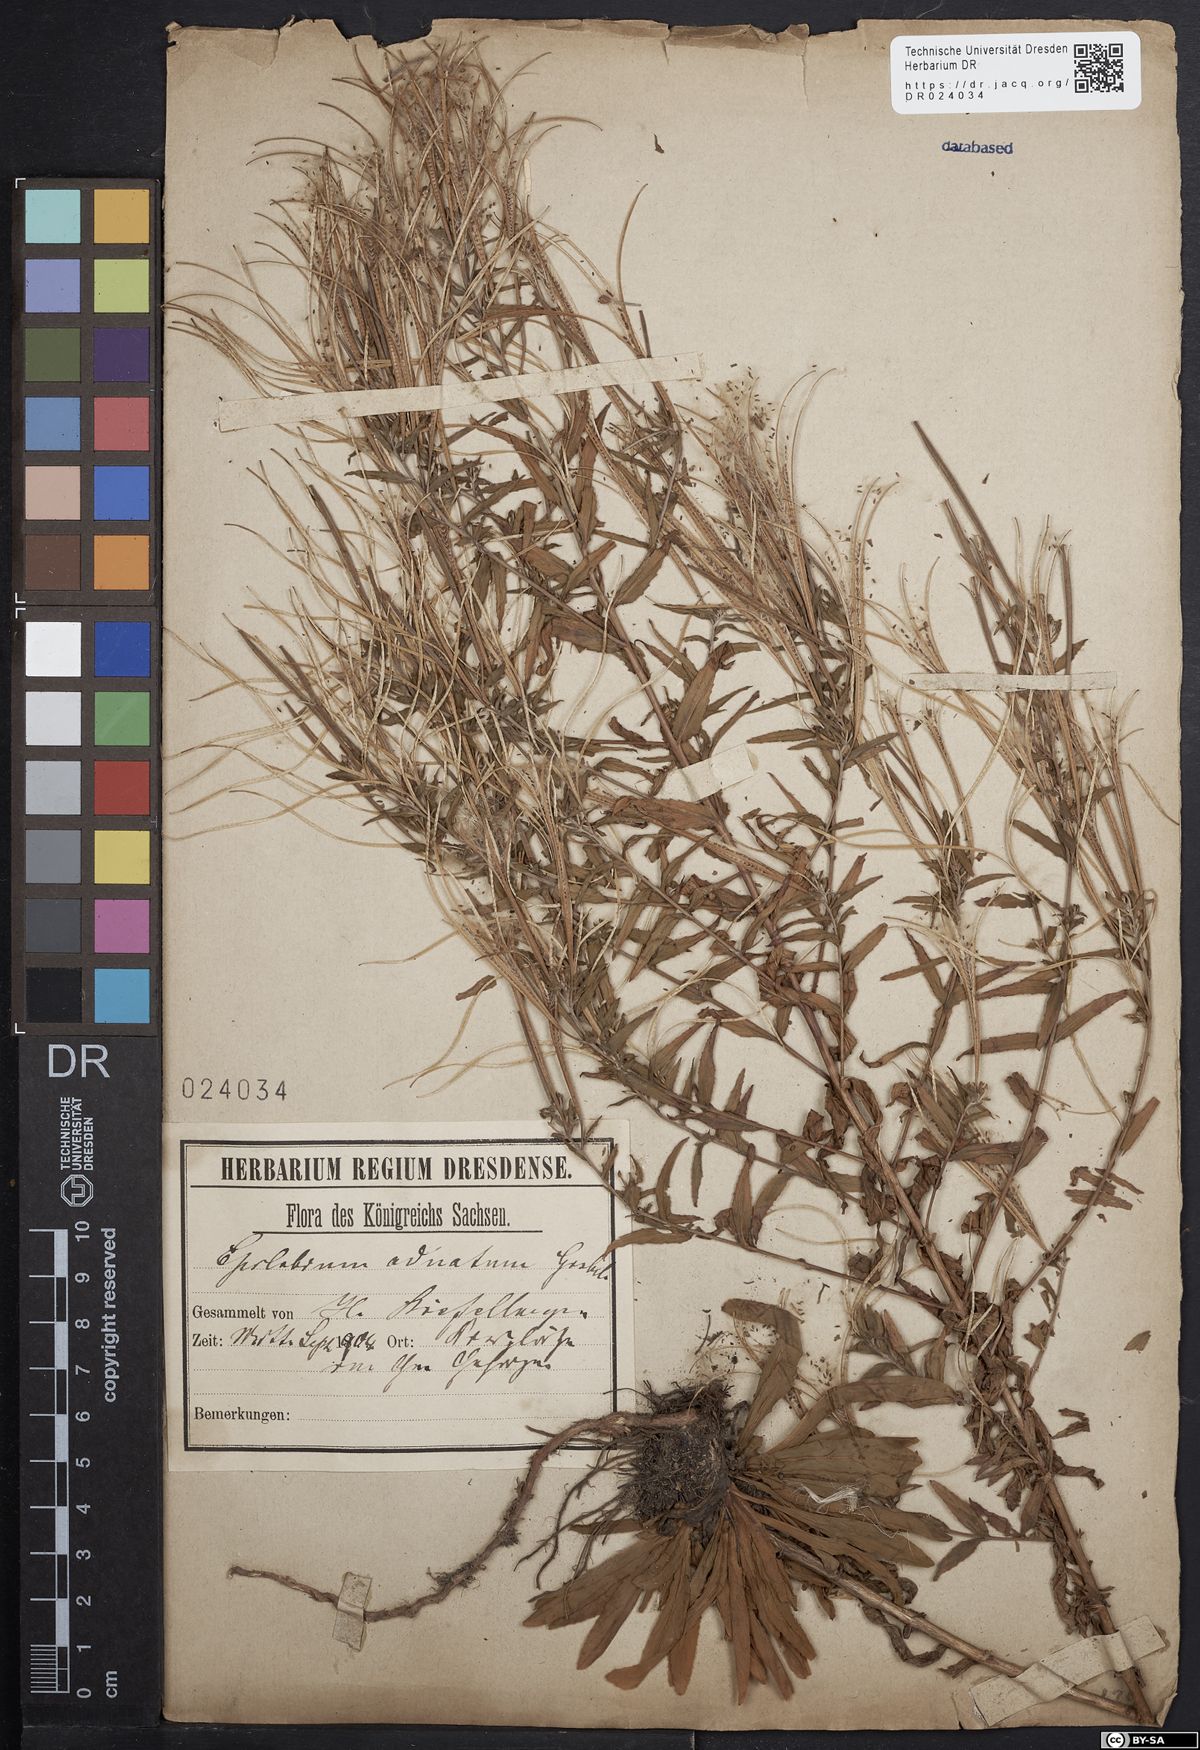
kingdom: Plantae
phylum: Tracheophyta
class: Magnoliopsida
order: Myrtales
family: Onagraceae
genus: Epilobium
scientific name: Epilobium tetragonum
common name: Square-stemmed willowherb
